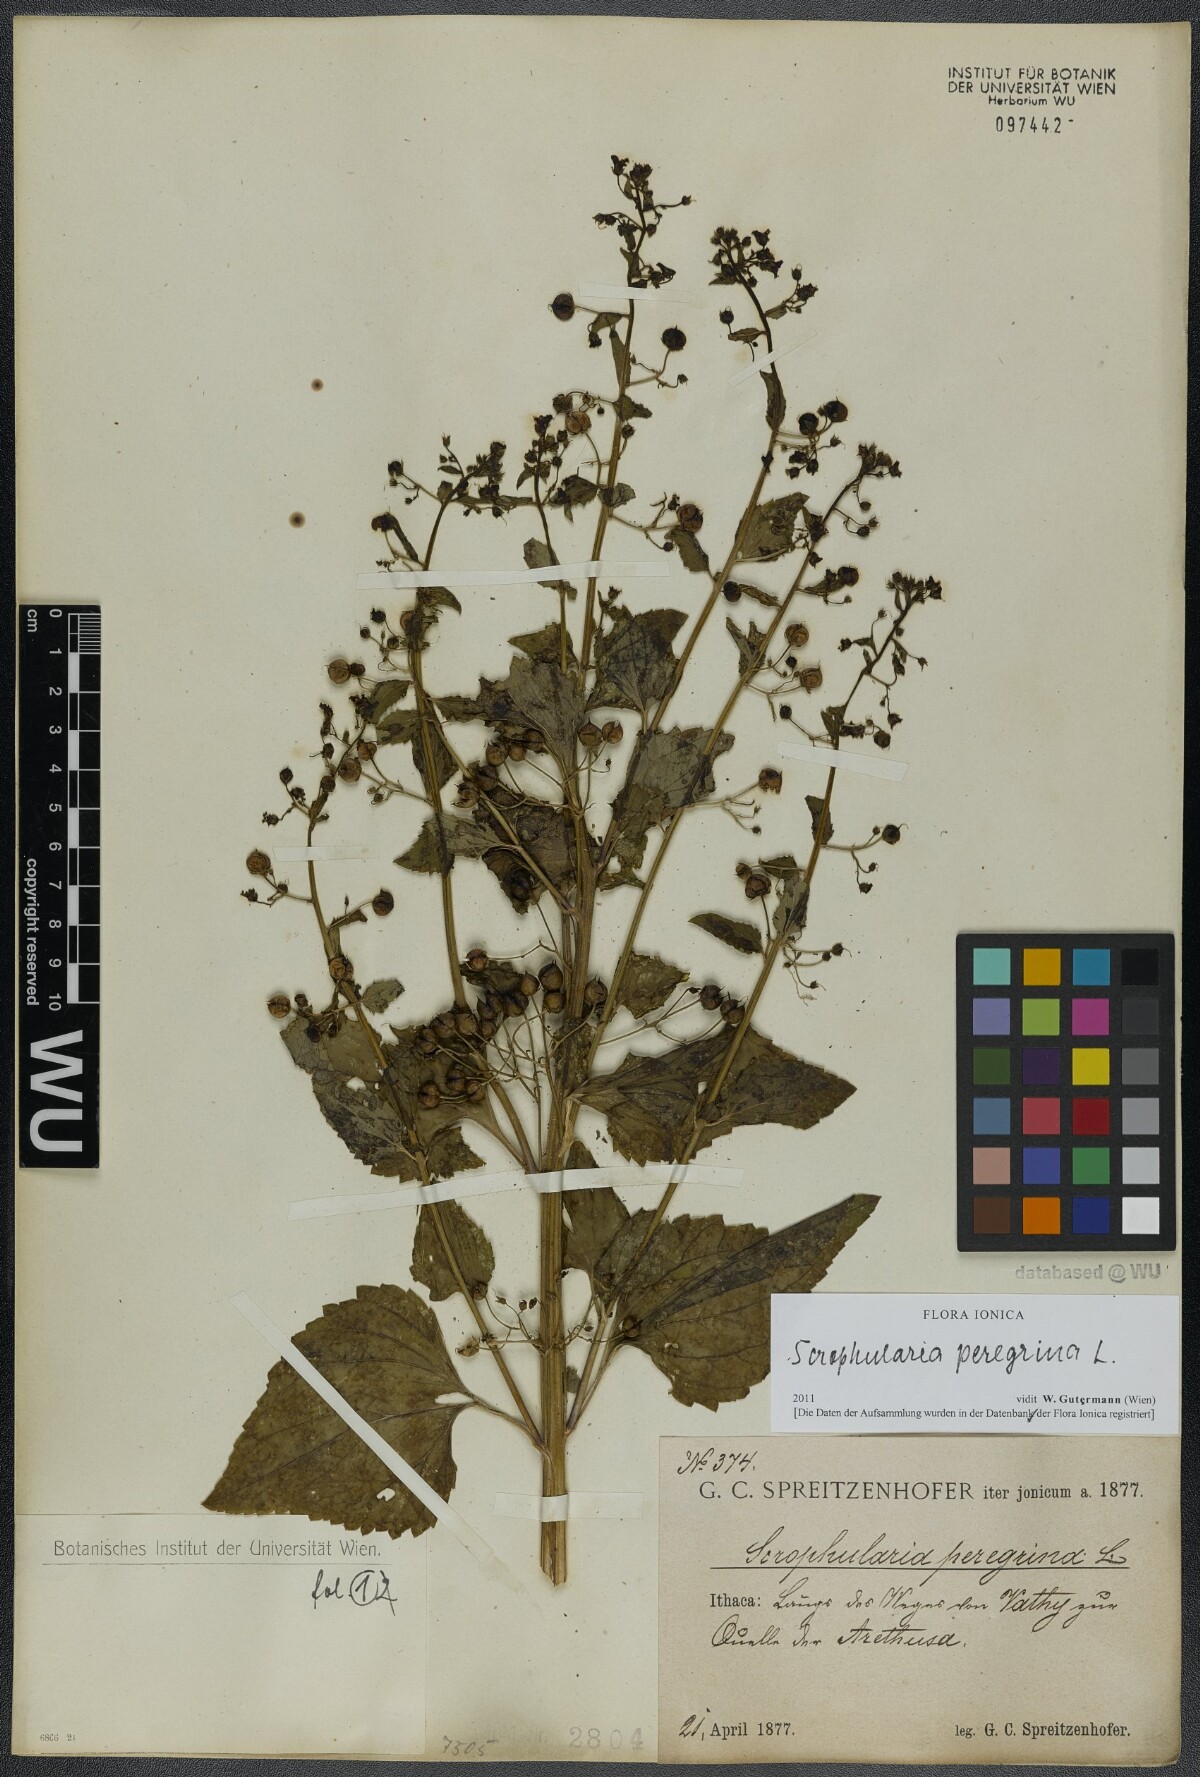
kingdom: Plantae
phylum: Tracheophyta
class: Magnoliopsida
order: Lamiales
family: Scrophulariaceae
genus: Scrophularia
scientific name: Scrophularia peregrina
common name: Mediterranean figwort
